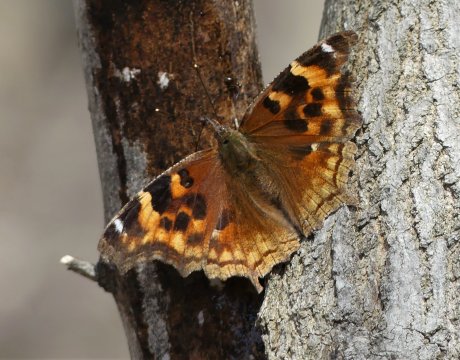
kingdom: Animalia
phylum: Arthropoda
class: Insecta
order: Lepidoptera
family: Nymphalidae
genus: Polygonia
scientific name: Polygonia vaualbum
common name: Compton Tortoiseshell
